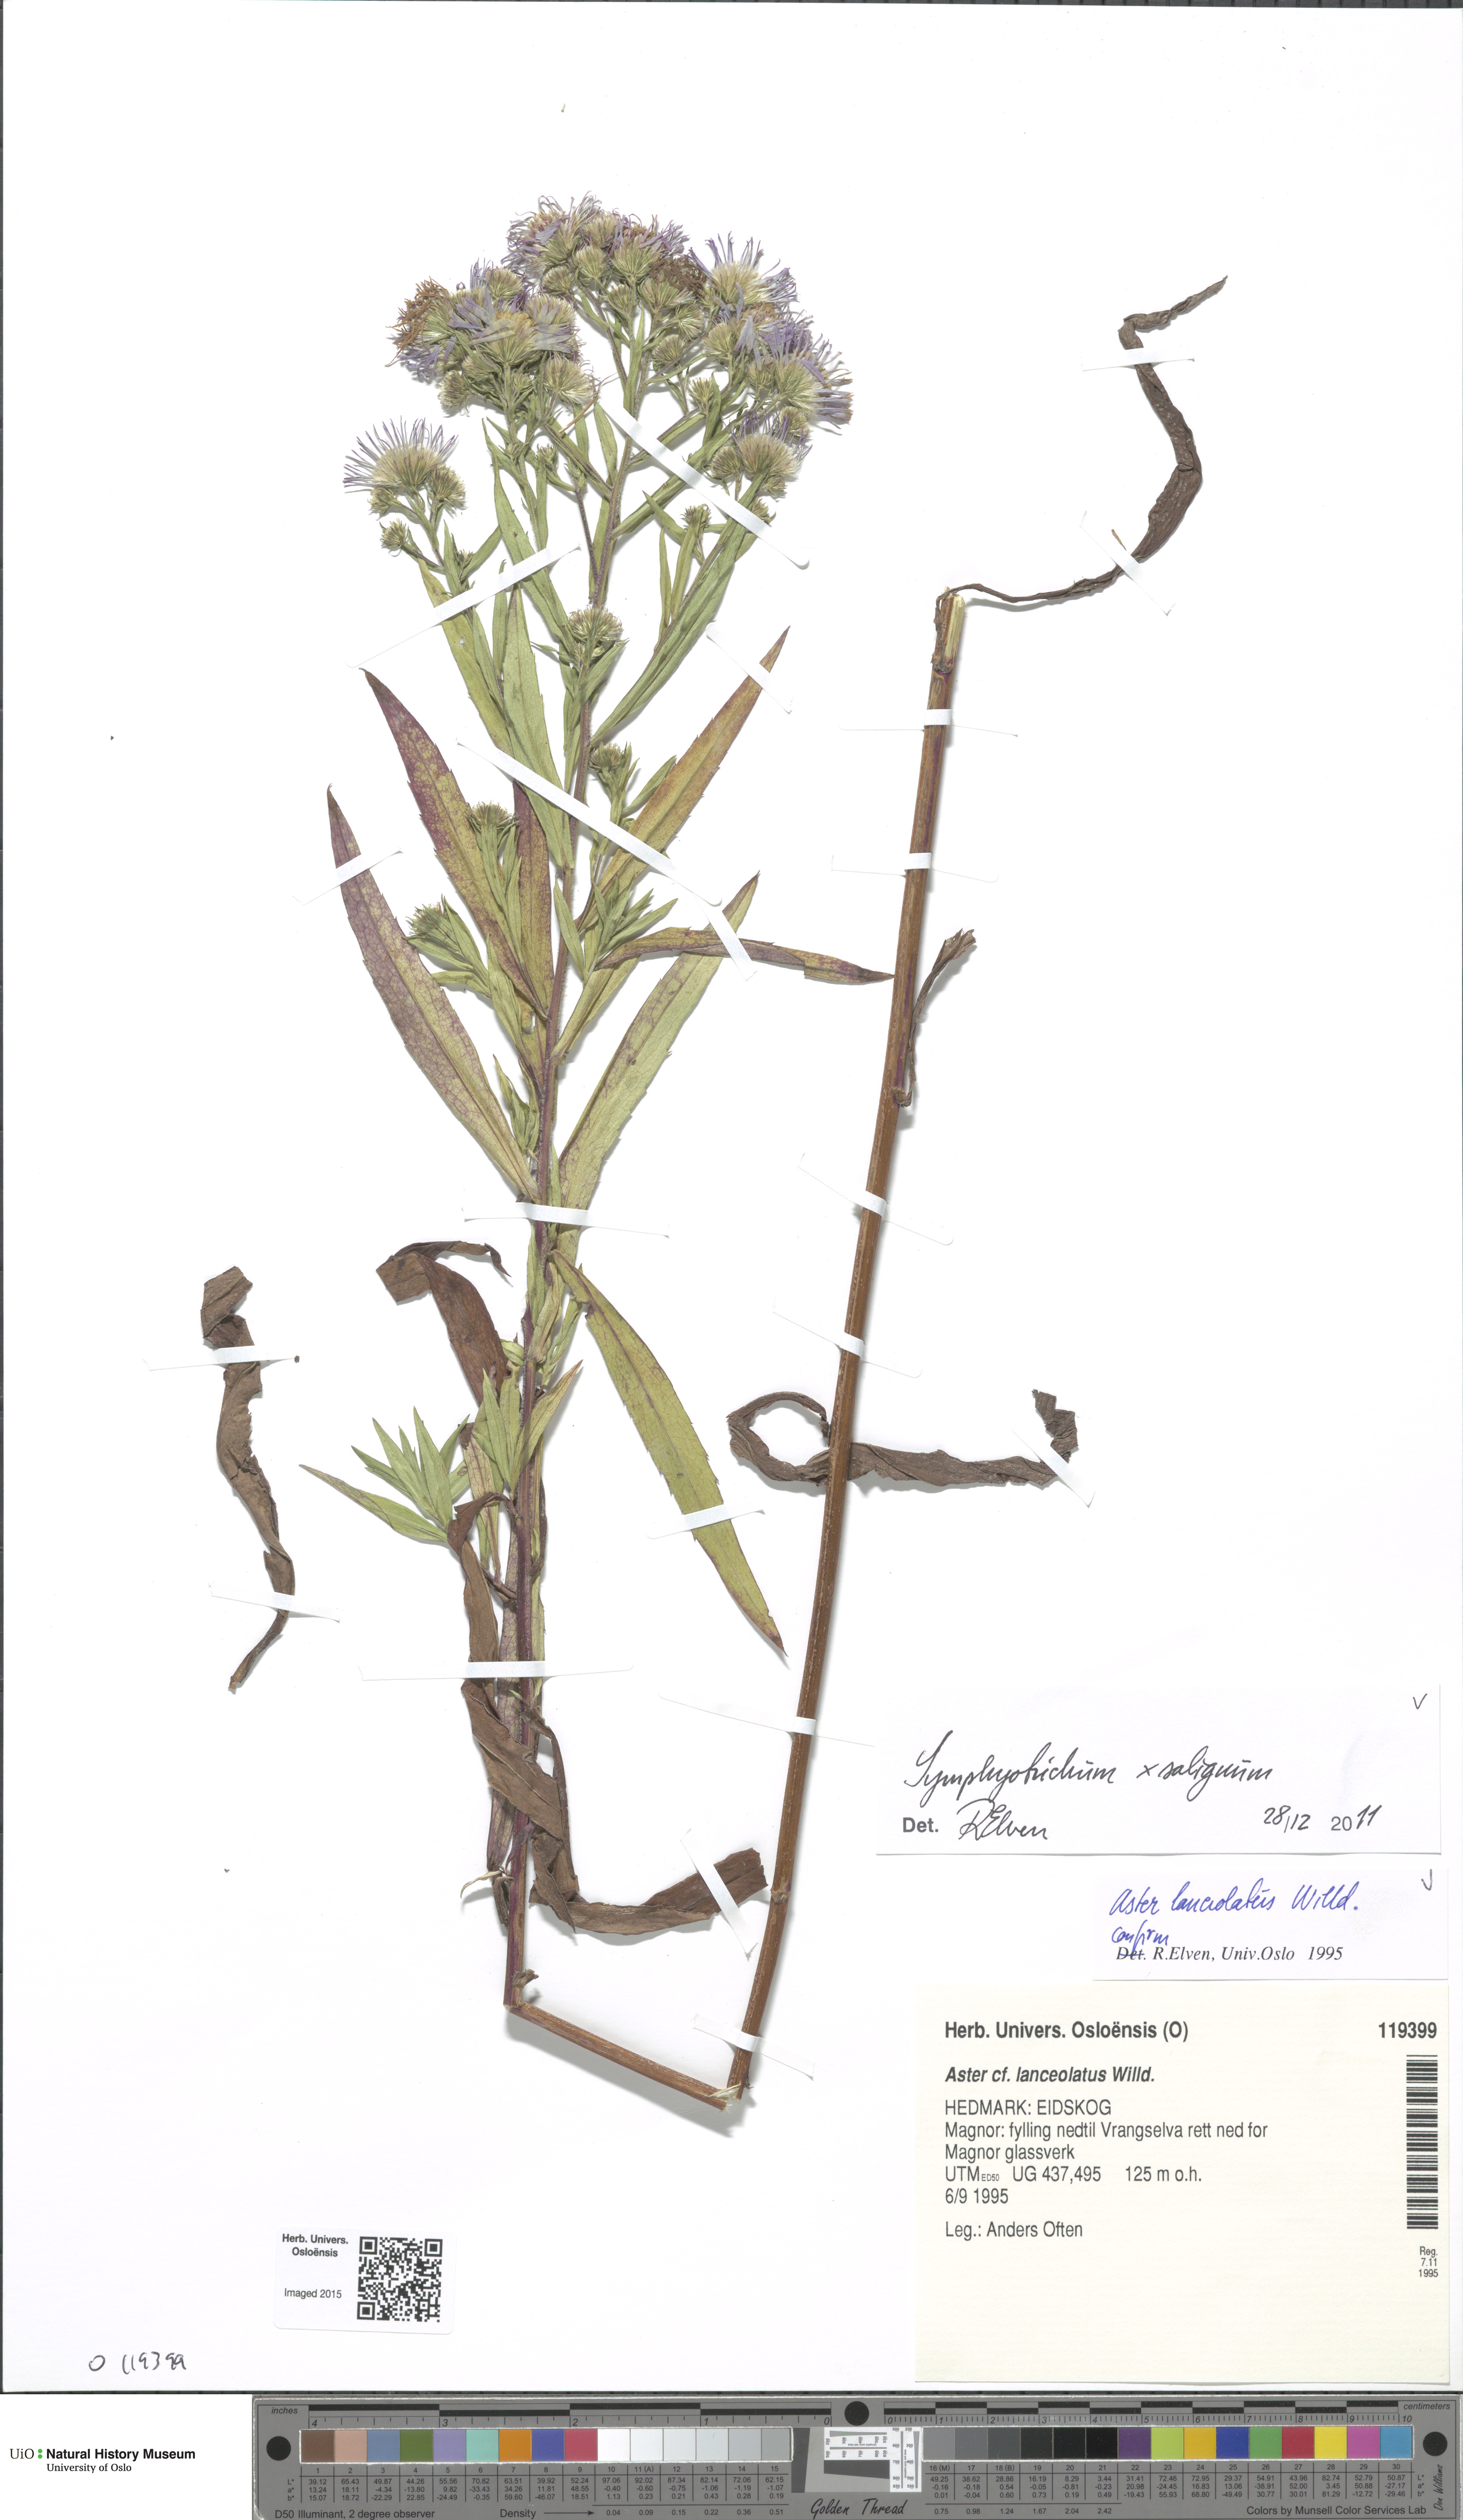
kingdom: Plantae
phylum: Tracheophyta
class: Magnoliopsida
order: Asterales
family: Asteraceae
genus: Symphyotrichum
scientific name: Symphyotrichum lanceolatum
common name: Panicled aster
